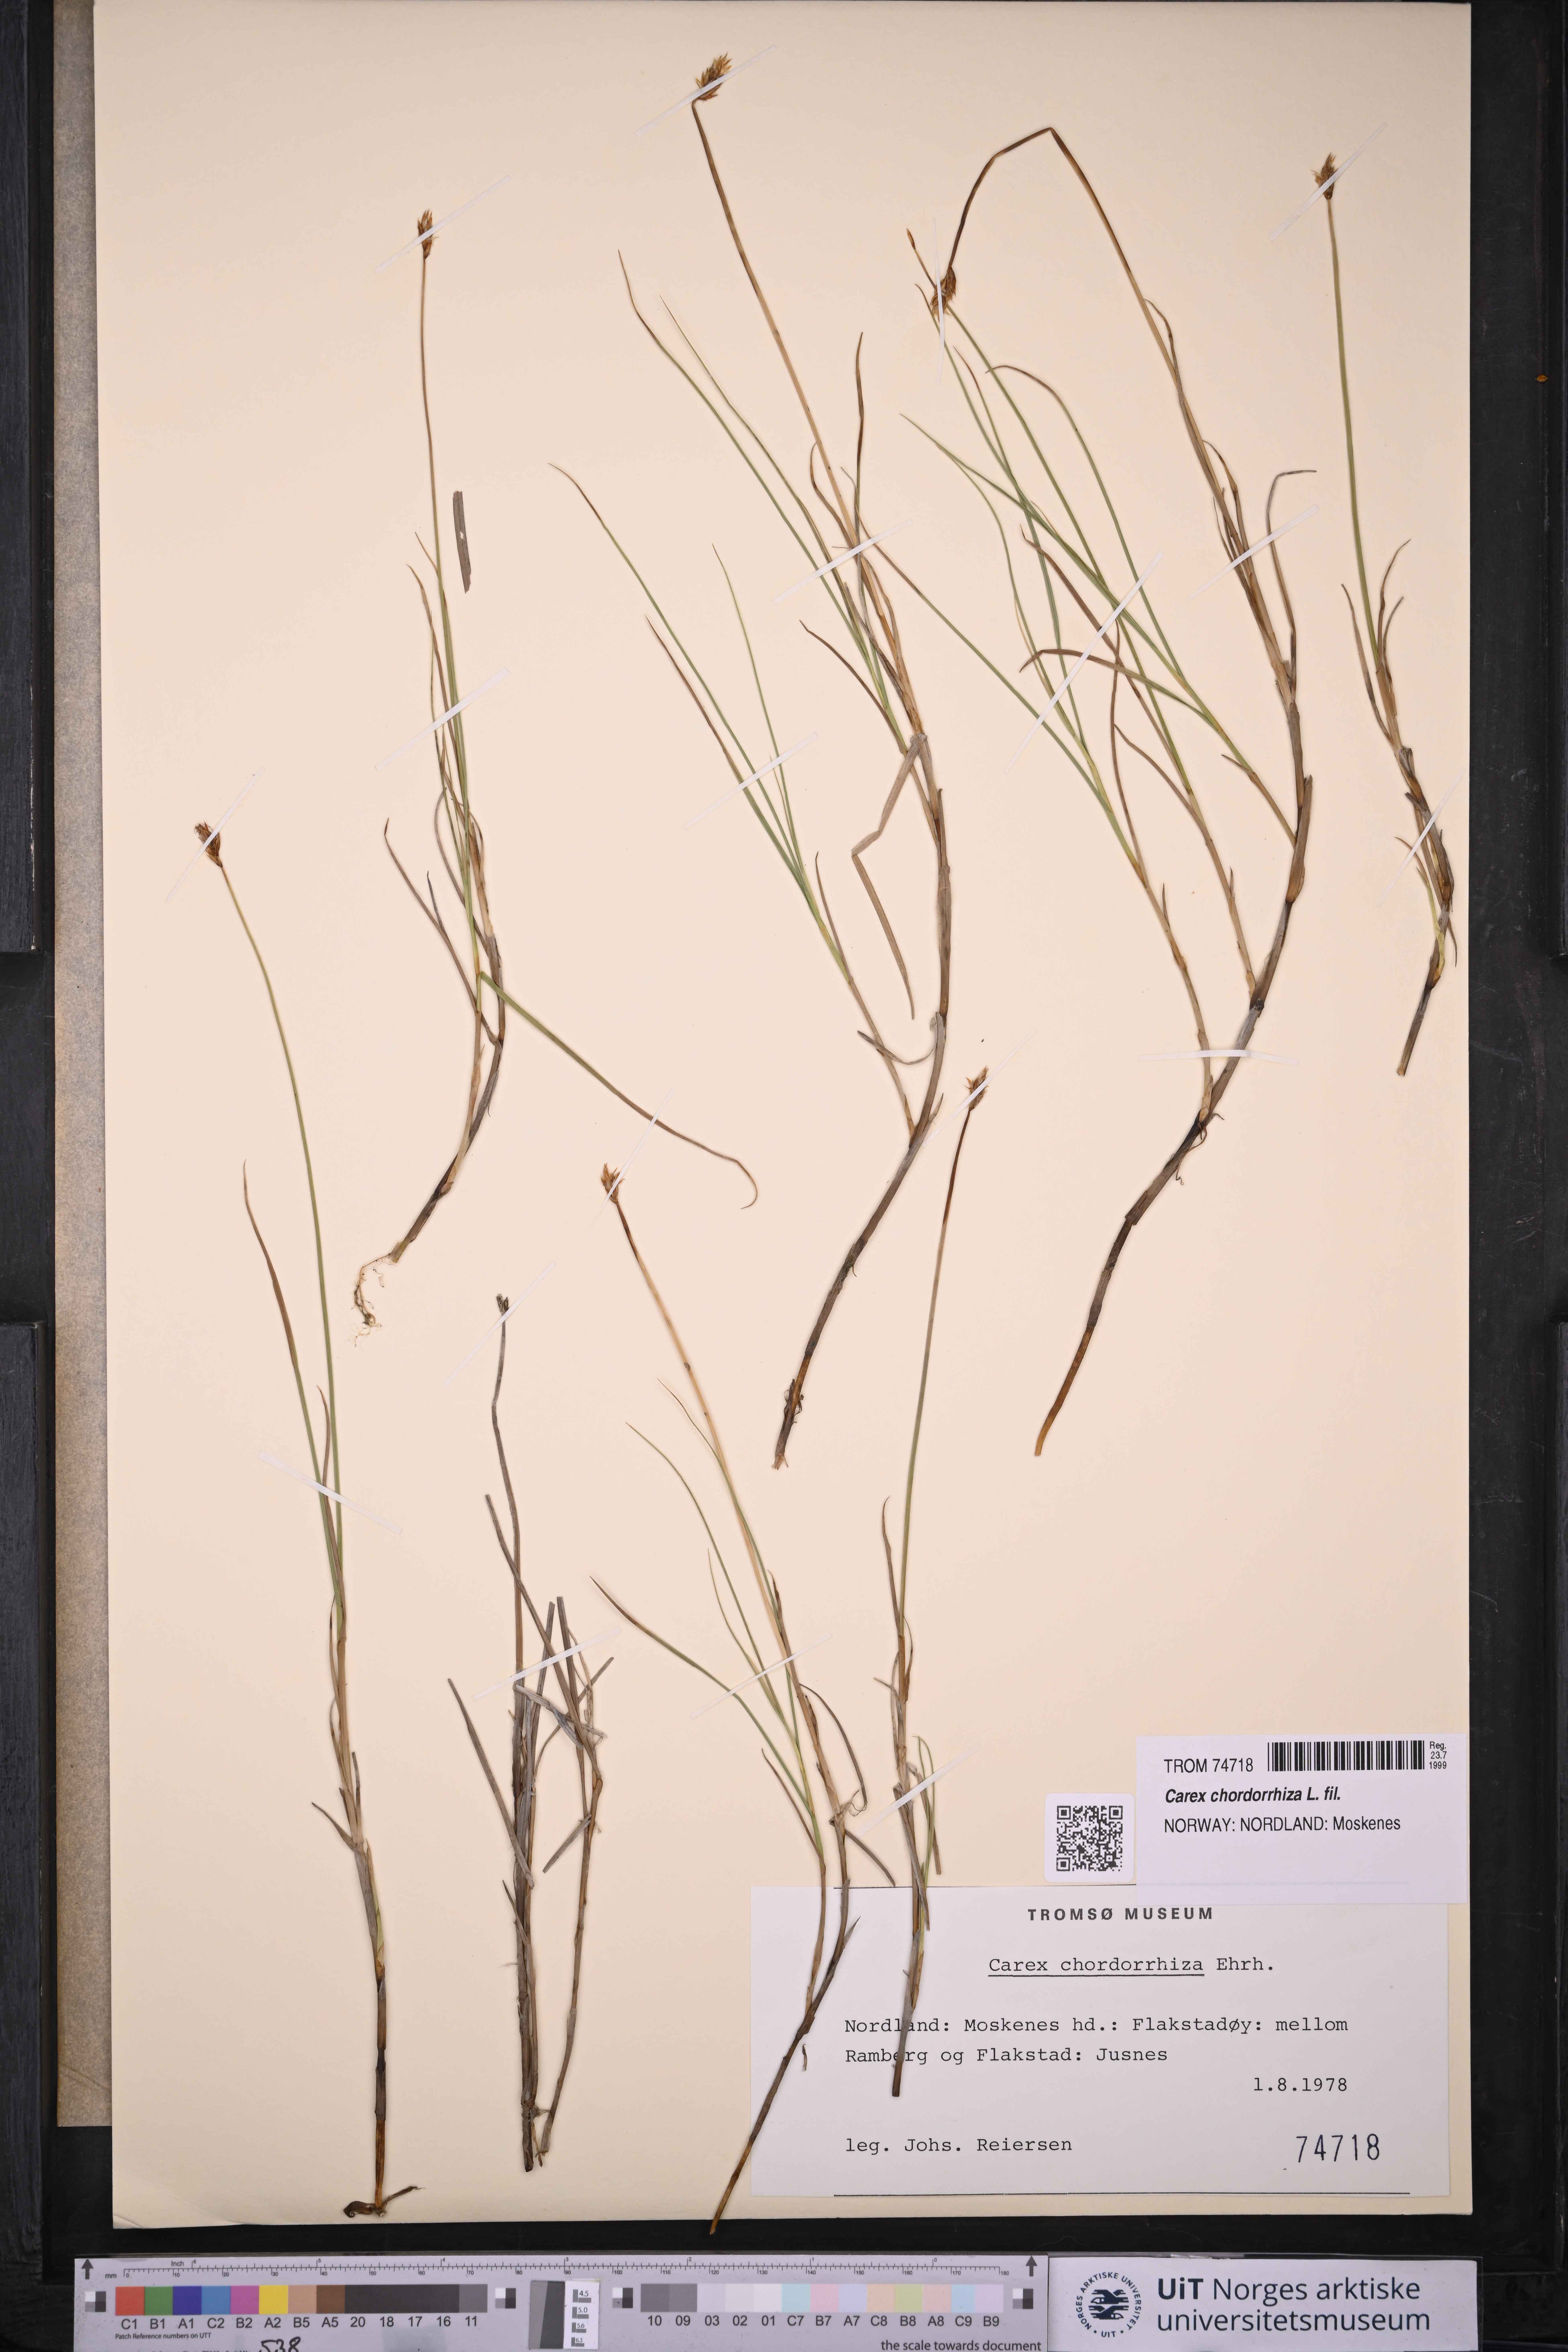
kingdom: Plantae
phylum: Tracheophyta
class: Liliopsida
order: Poales
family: Cyperaceae
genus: Carex
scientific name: Carex chordorrhiza
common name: String sedge
